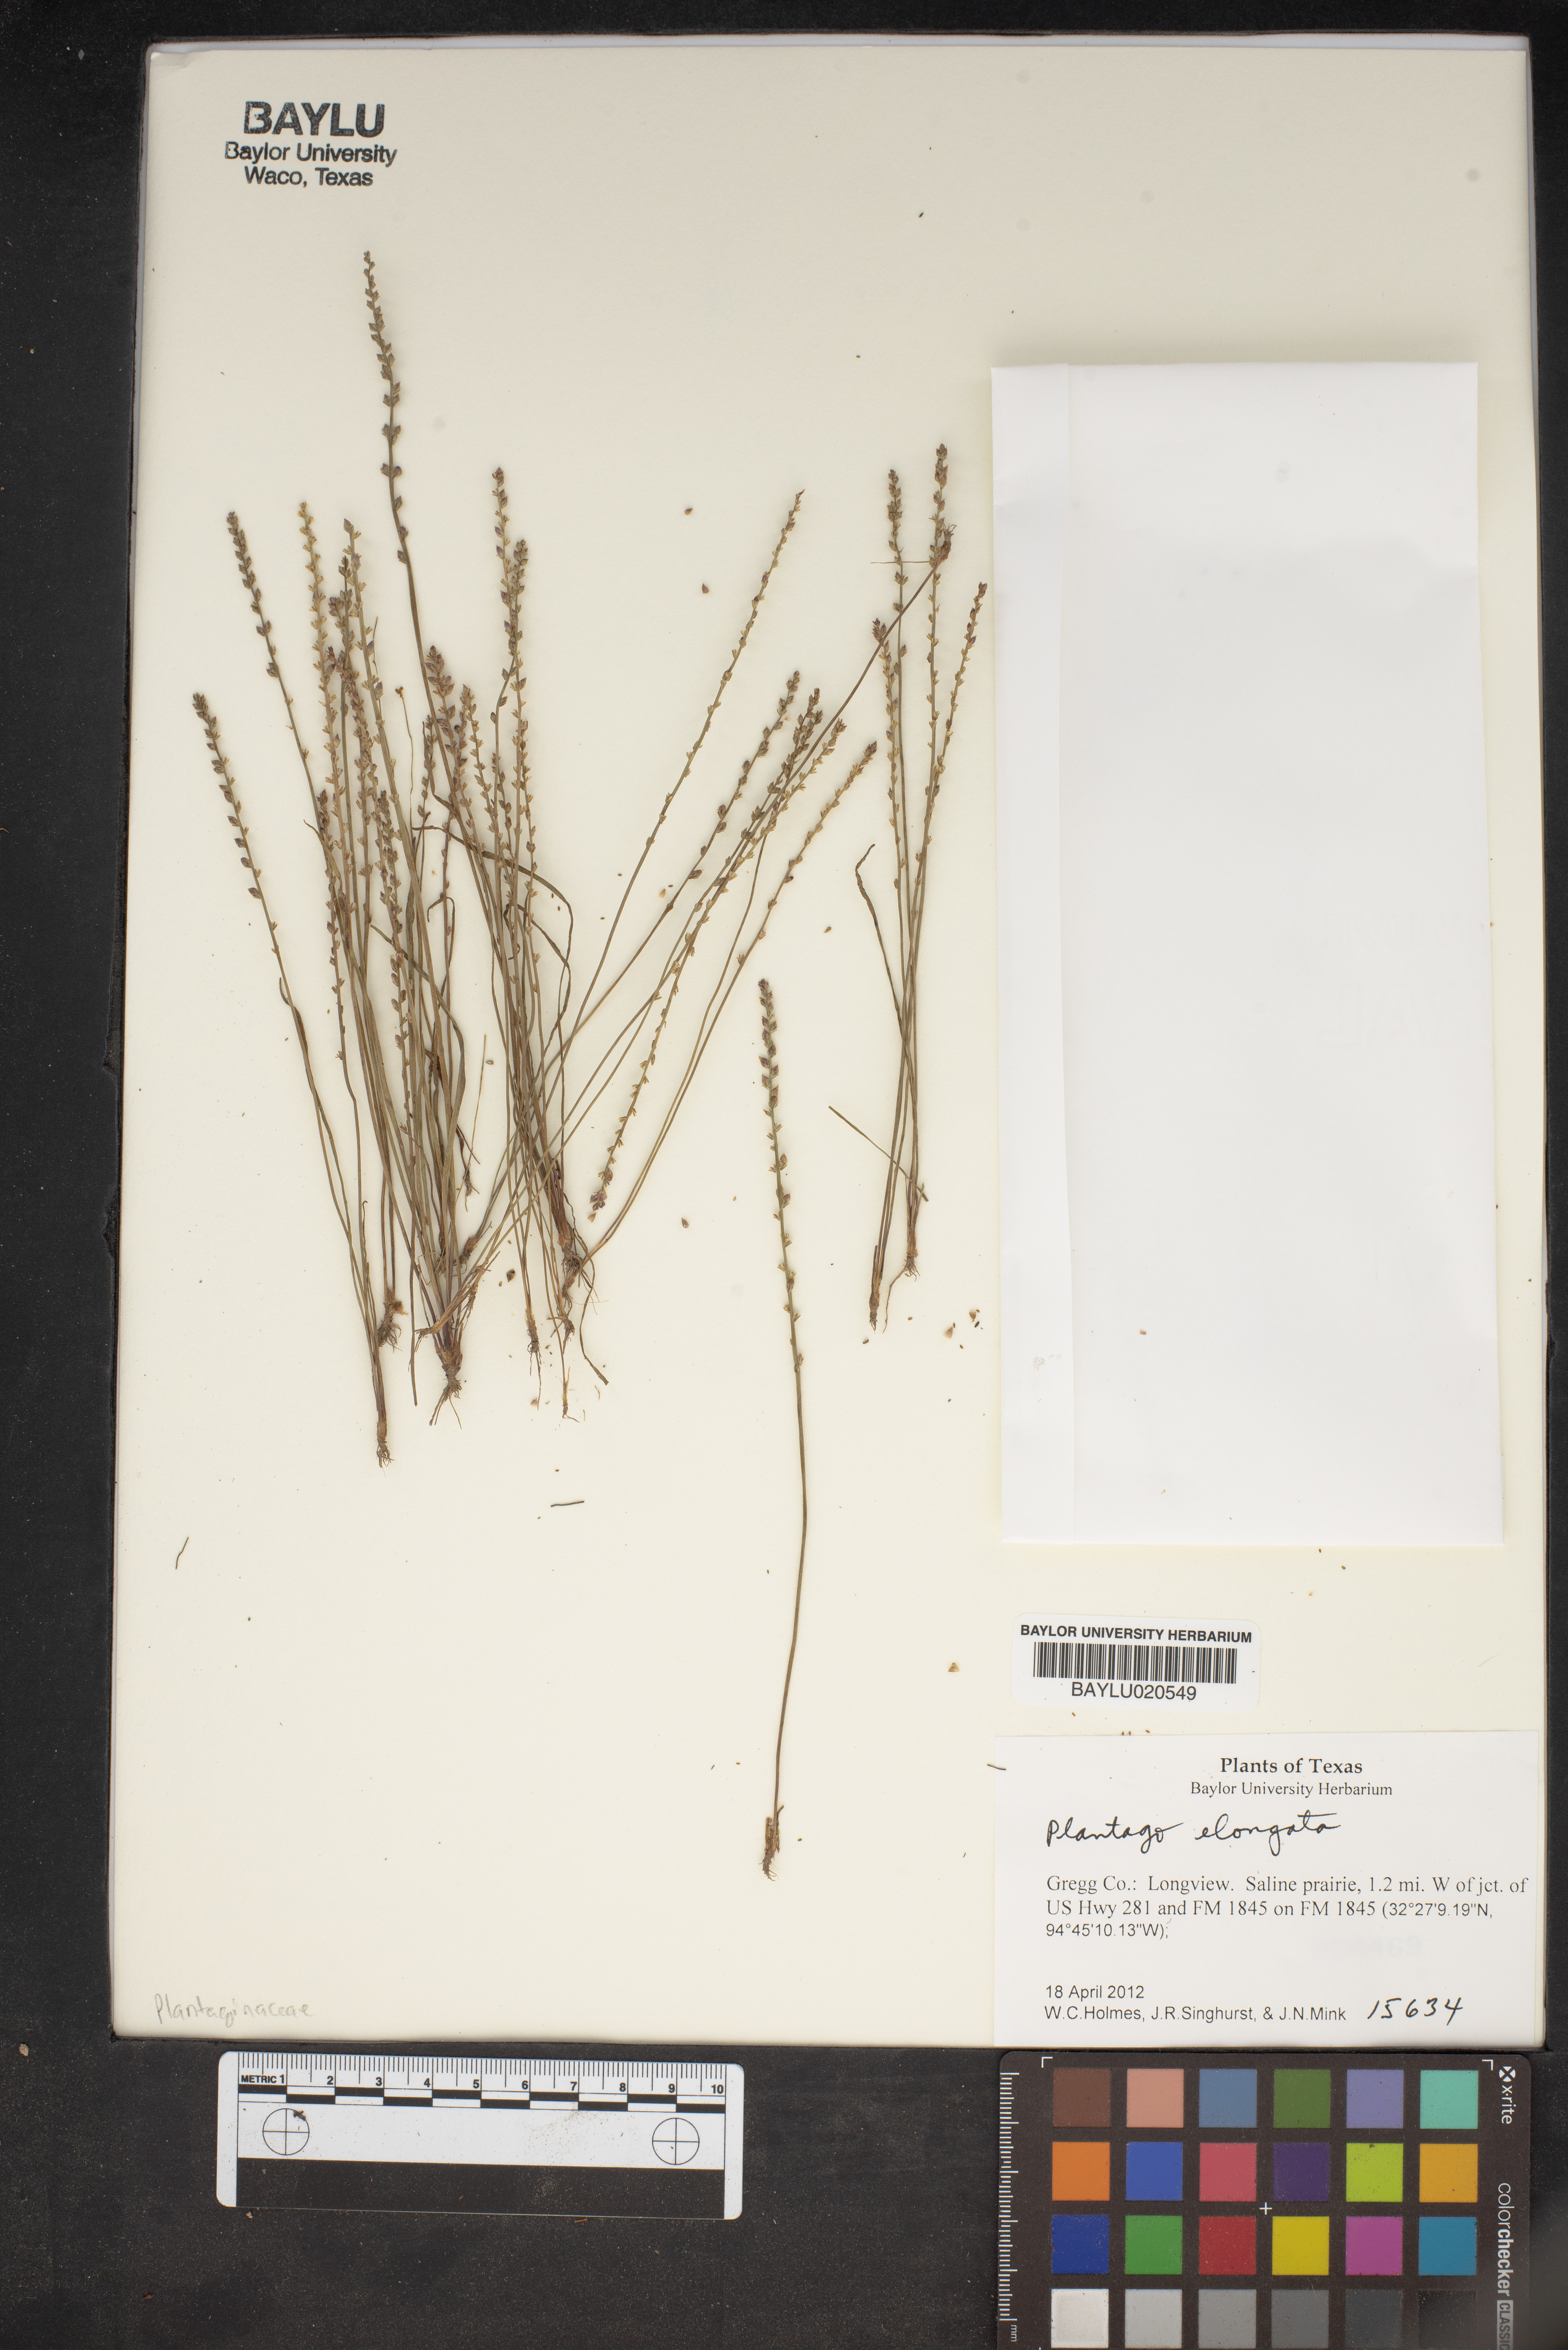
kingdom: Plantae
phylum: Tracheophyta
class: Magnoliopsida
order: Lamiales
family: Plantaginaceae
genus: Plantago
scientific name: Plantago elongata
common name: Linear-leaved plantain
